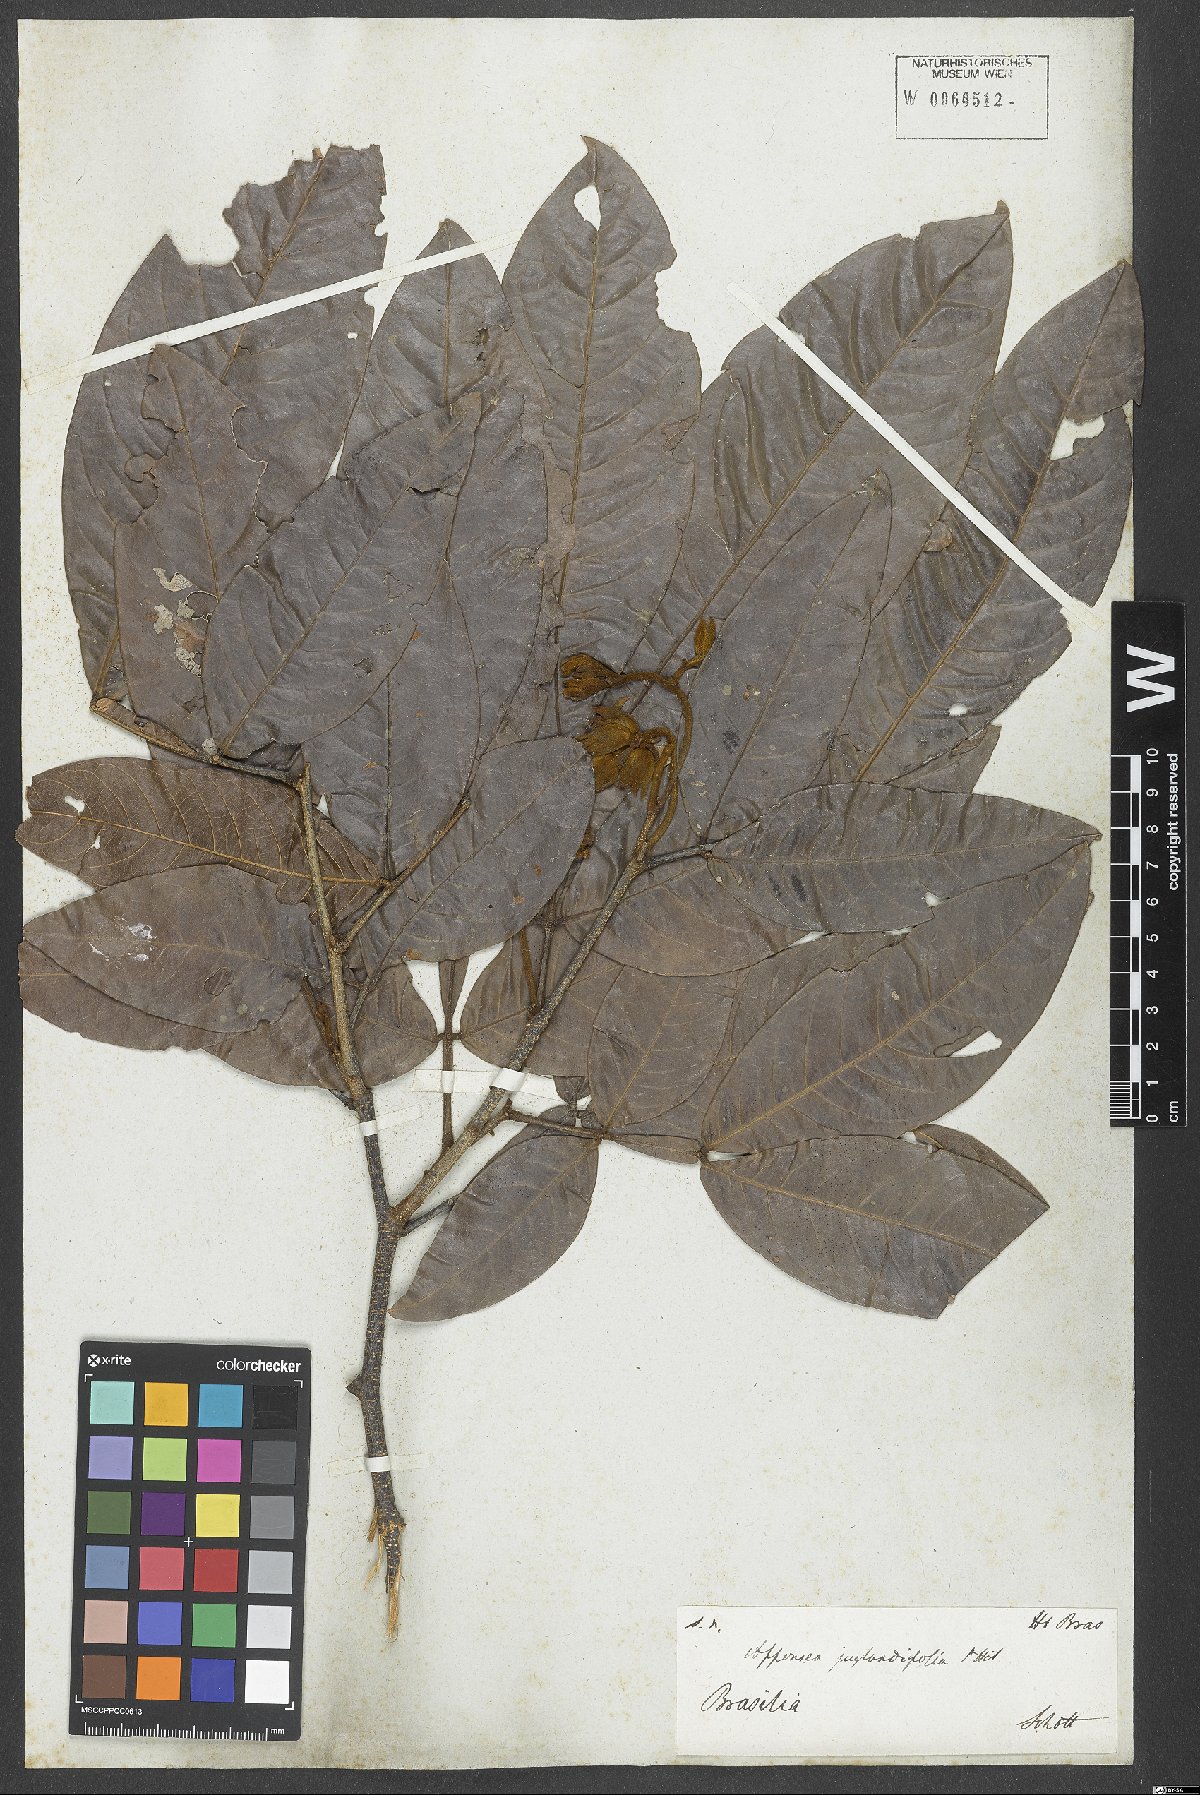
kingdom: Plantae
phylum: Tracheophyta
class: Magnoliopsida
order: Fabales
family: Fabaceae
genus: Inga
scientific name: Inga globularis
